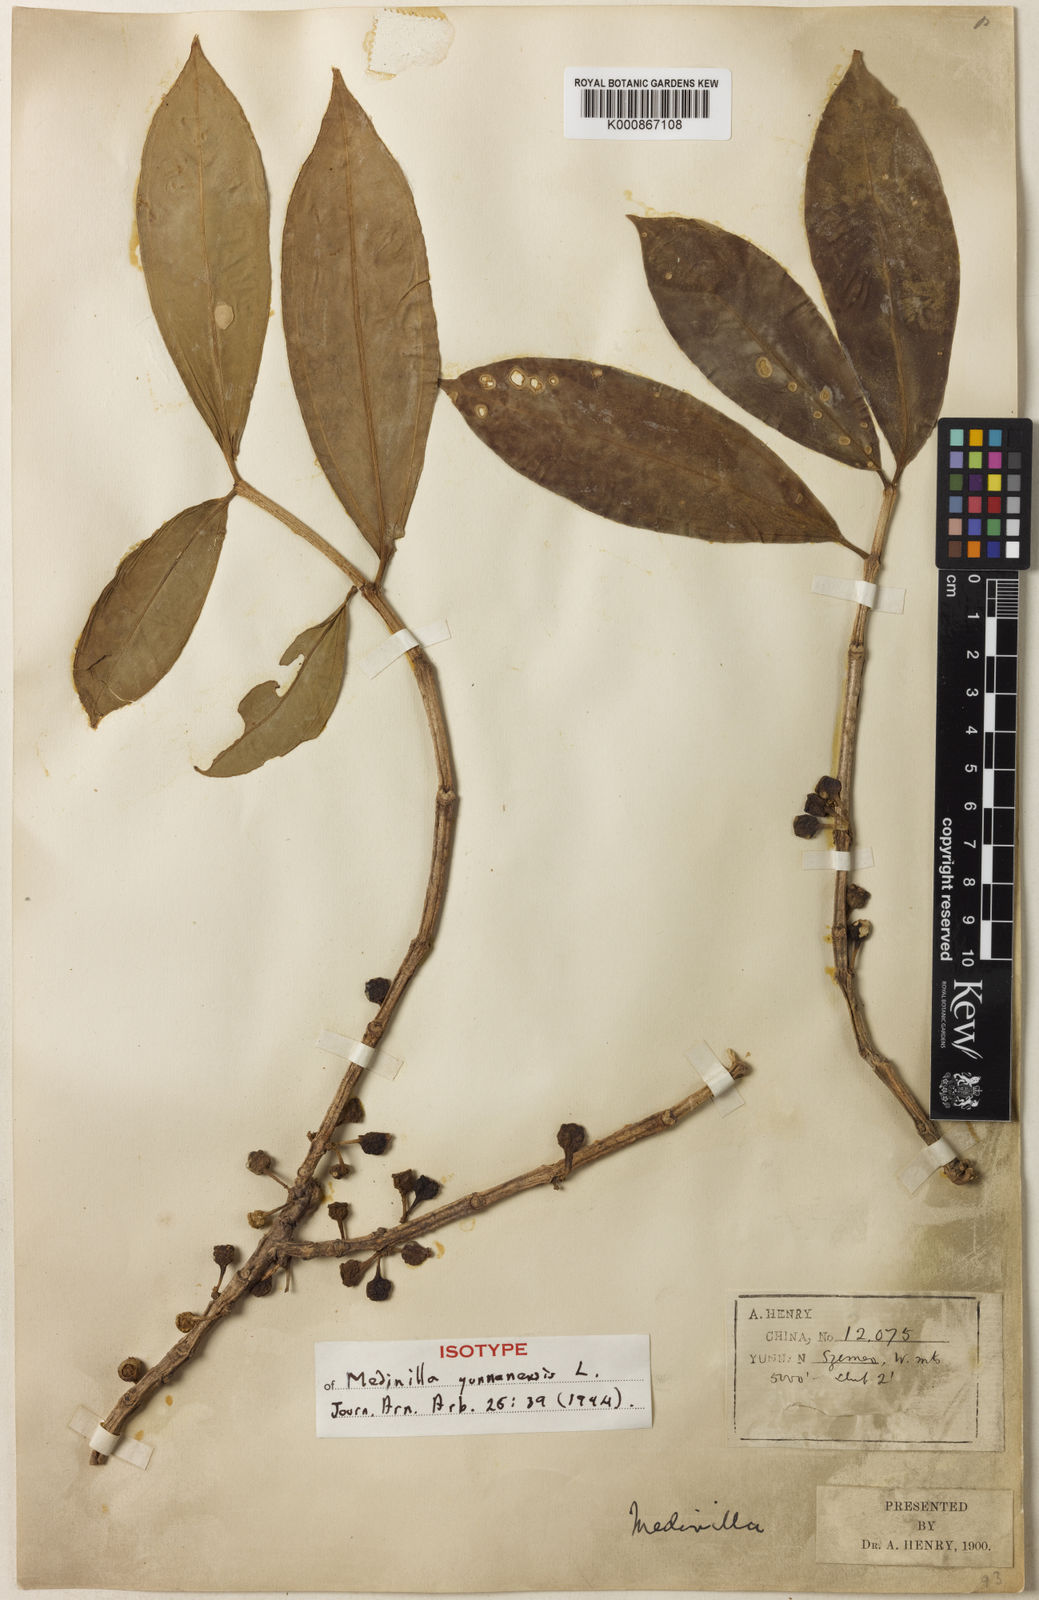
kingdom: Plantae
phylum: Tracheophyta
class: Magnoliopsida
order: Myrtales
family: Melastomataceae
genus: Medinilla
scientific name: Medinilla rubicunda
